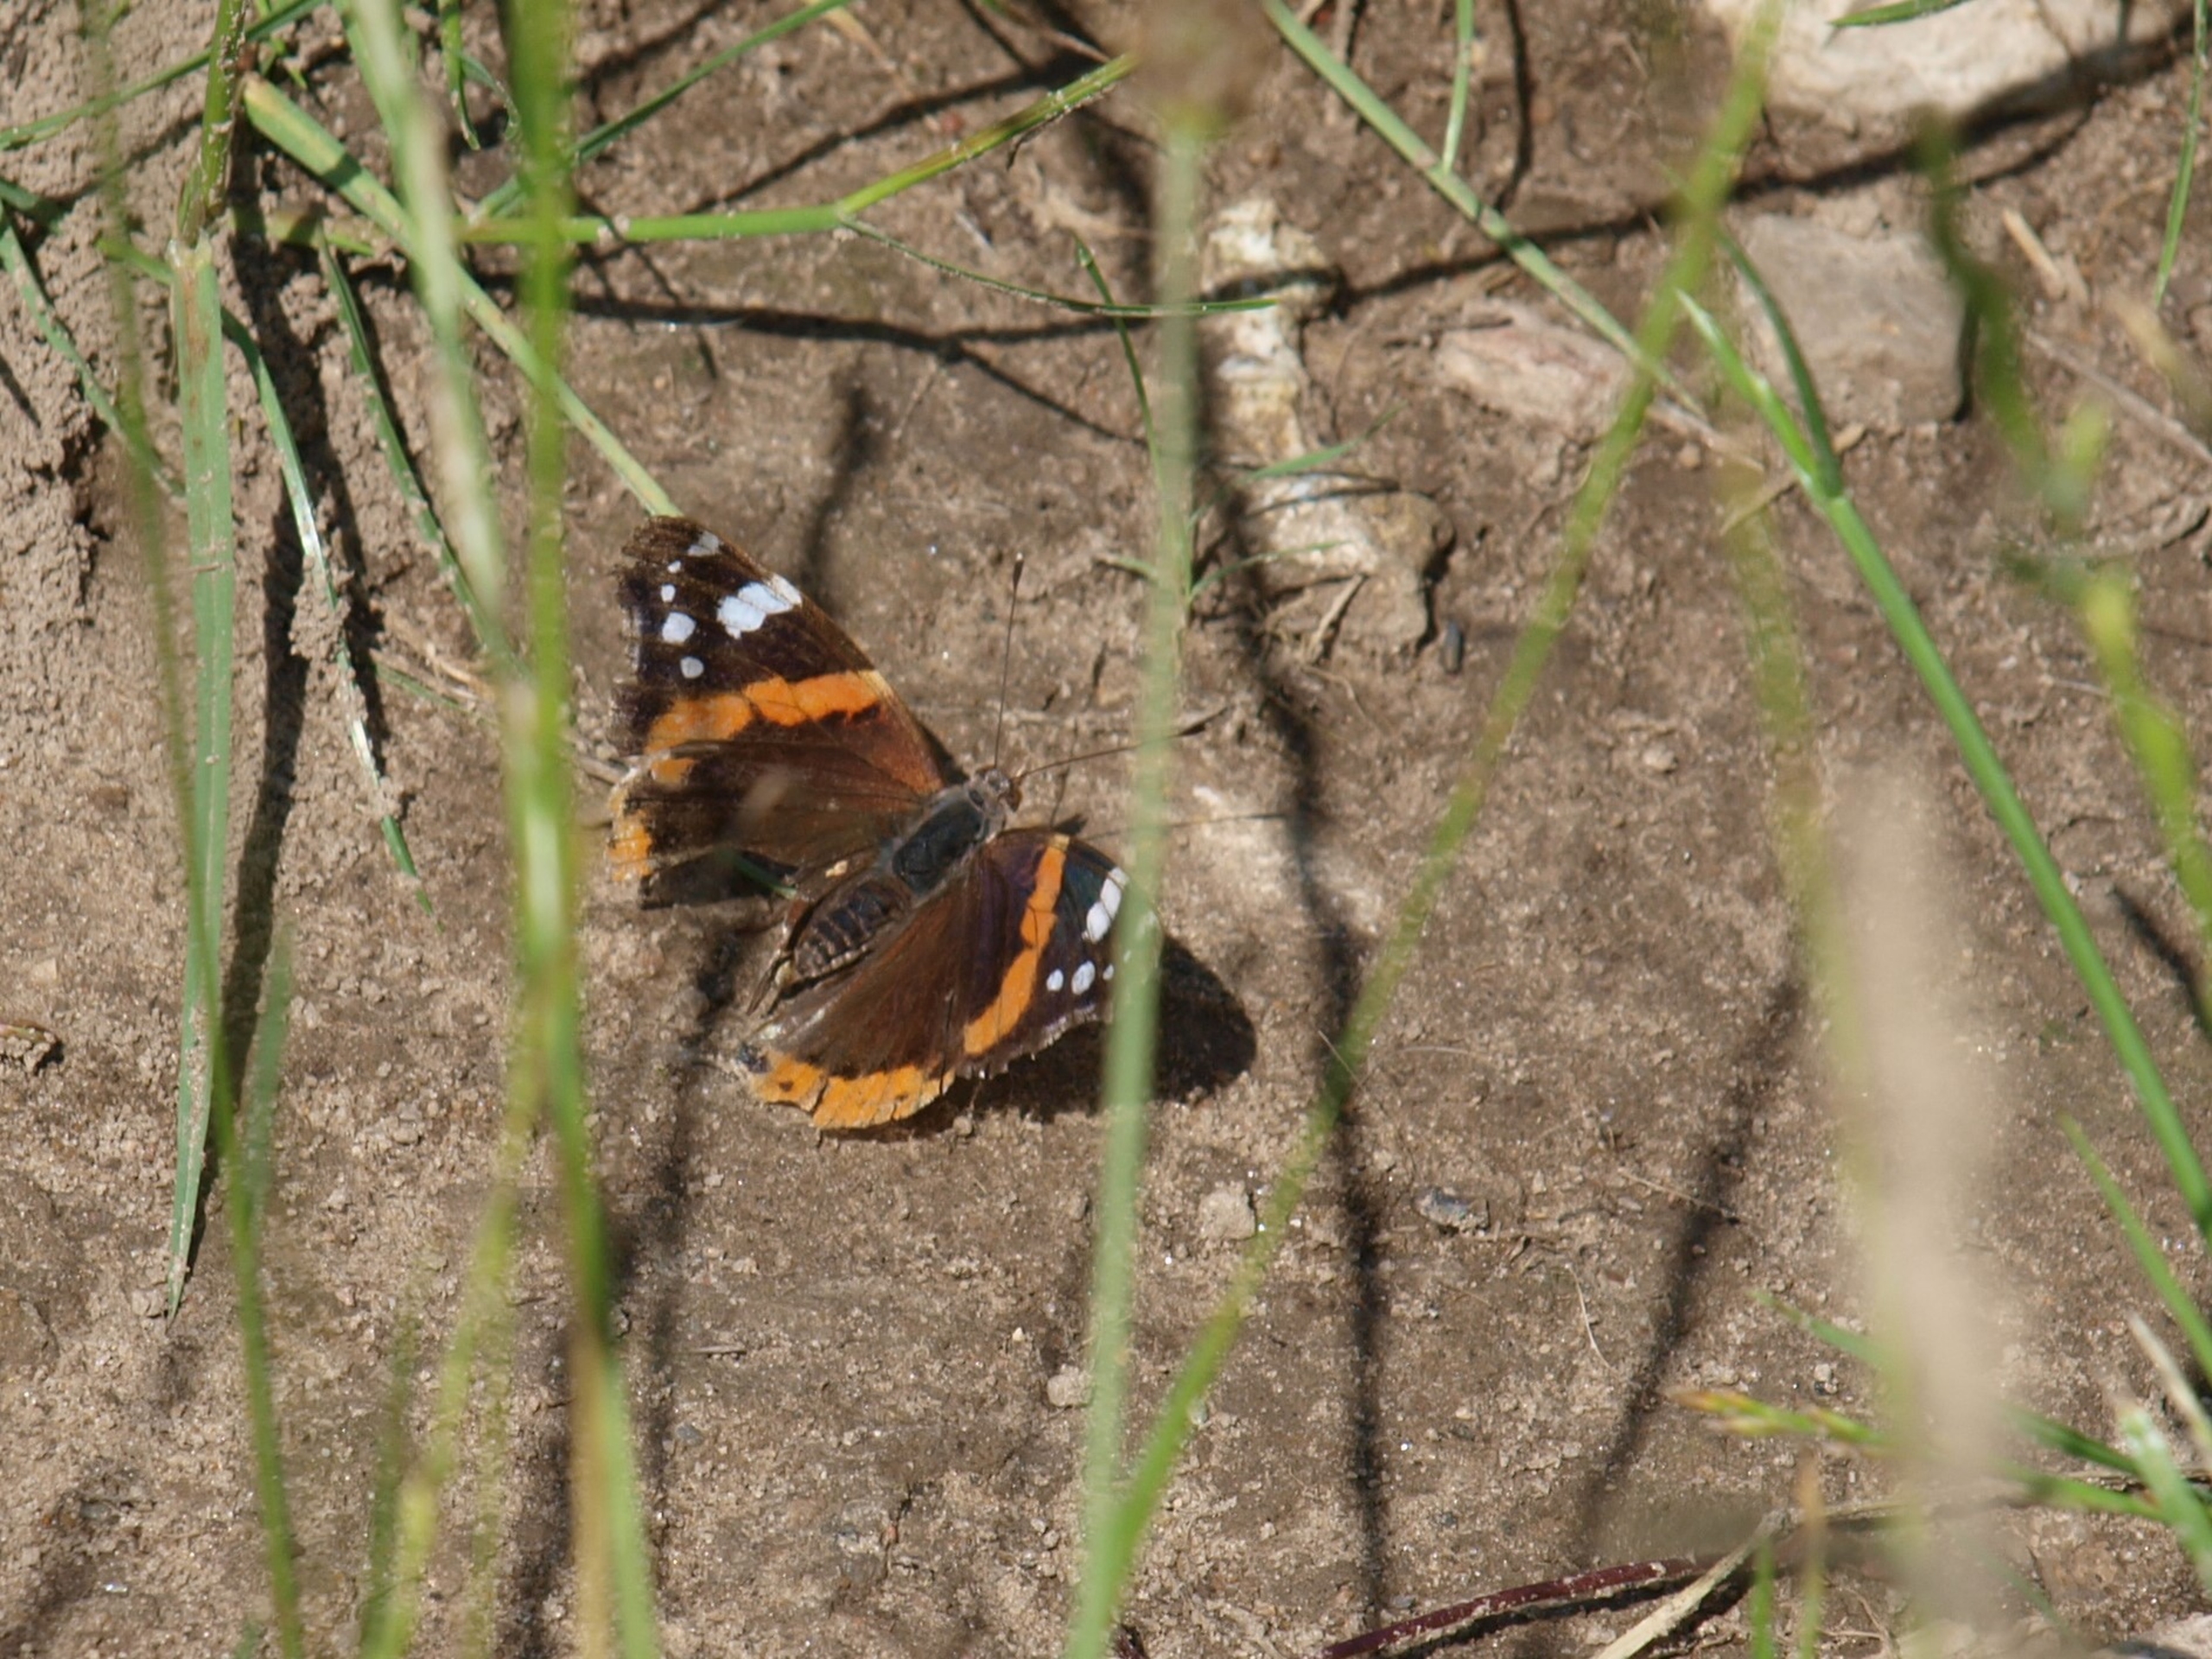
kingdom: Animalia
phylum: Arthropoda
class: Insecta
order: Lepidoptera
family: Nymphalidae
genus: Vanessa
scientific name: Vanessa atalanta
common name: Admiral
